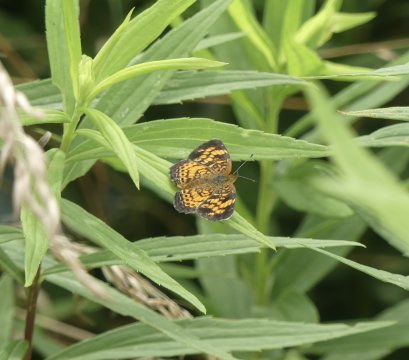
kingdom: Animalia
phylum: Arthropoda
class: Insecta
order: Lepidoptera
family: Nymphalidae
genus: Phyciodes
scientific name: Phyciodes tharos
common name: Pearl Crescent
